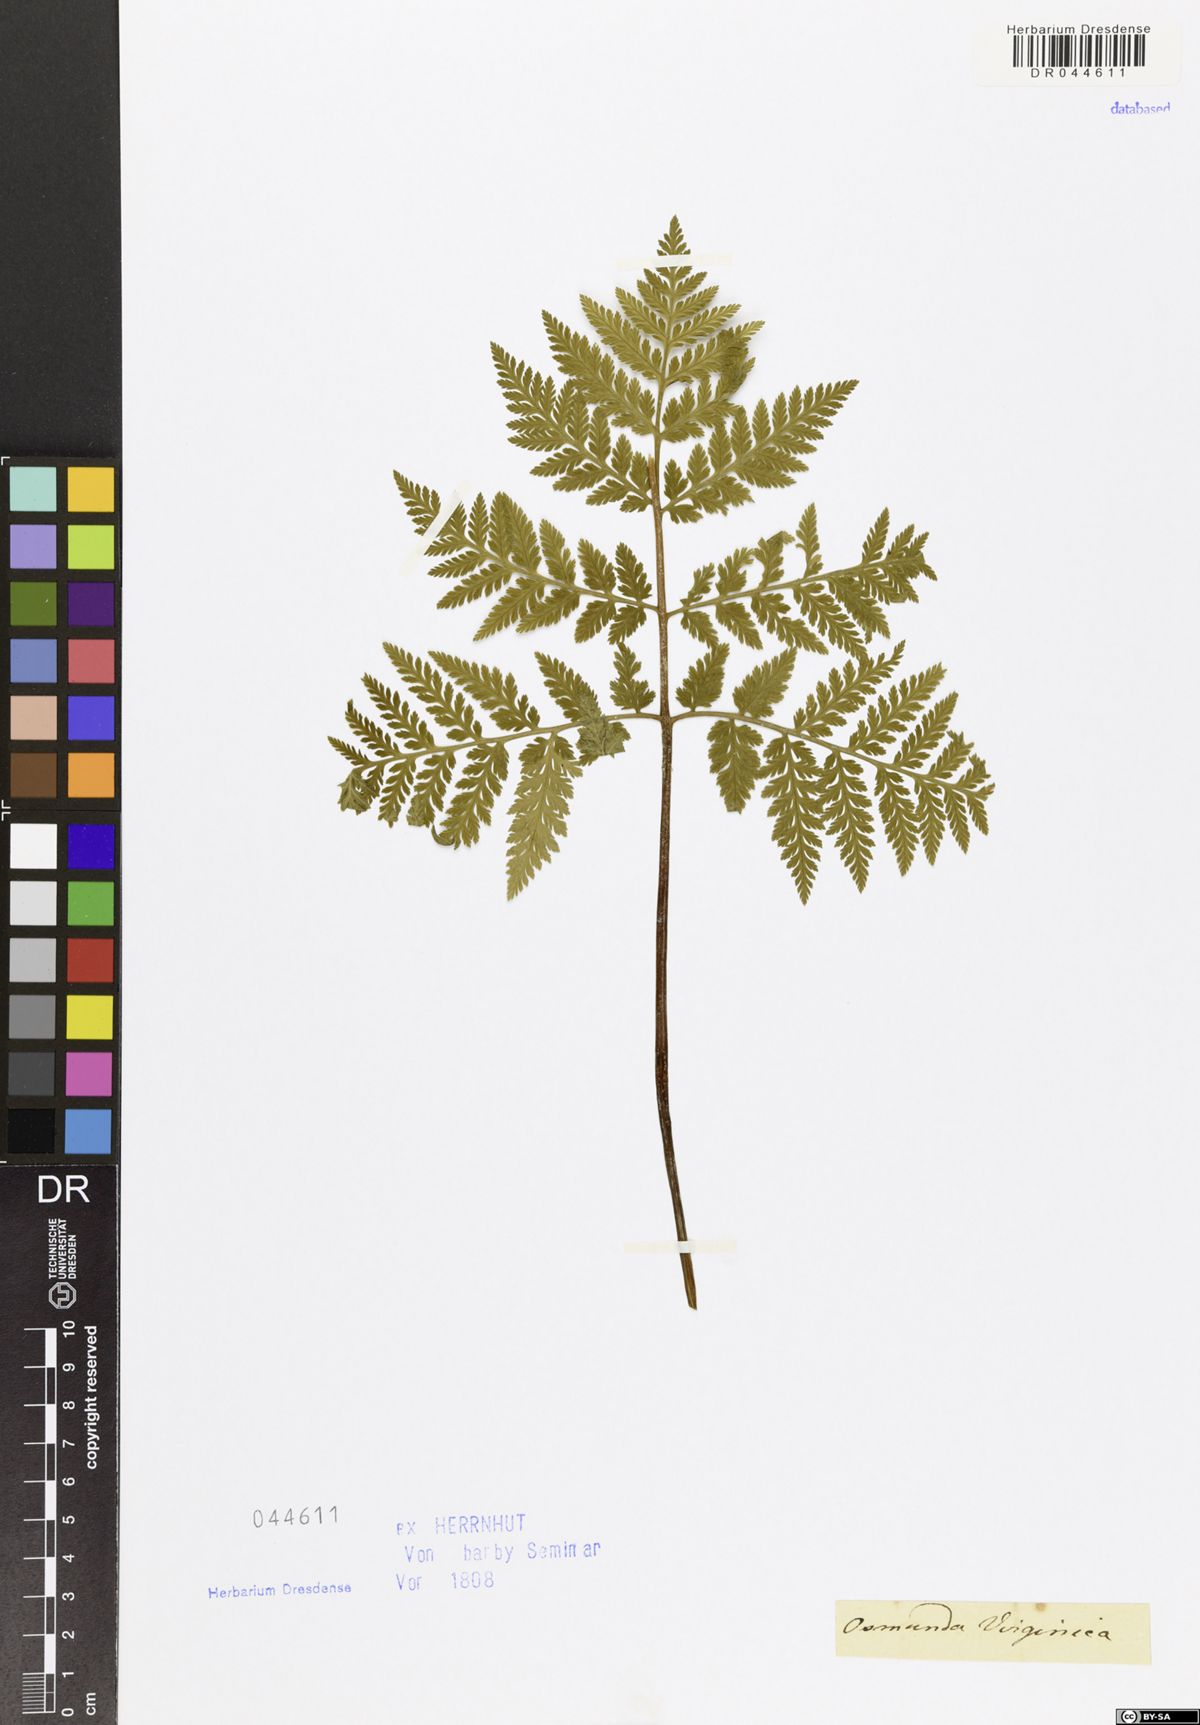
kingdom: Plantae
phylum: Tracheophyta
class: Polypodiopsida
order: Ophioglossales
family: Ophioglossaceae
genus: Botrypus
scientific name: Botrypus virginianus
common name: Common grapefern
